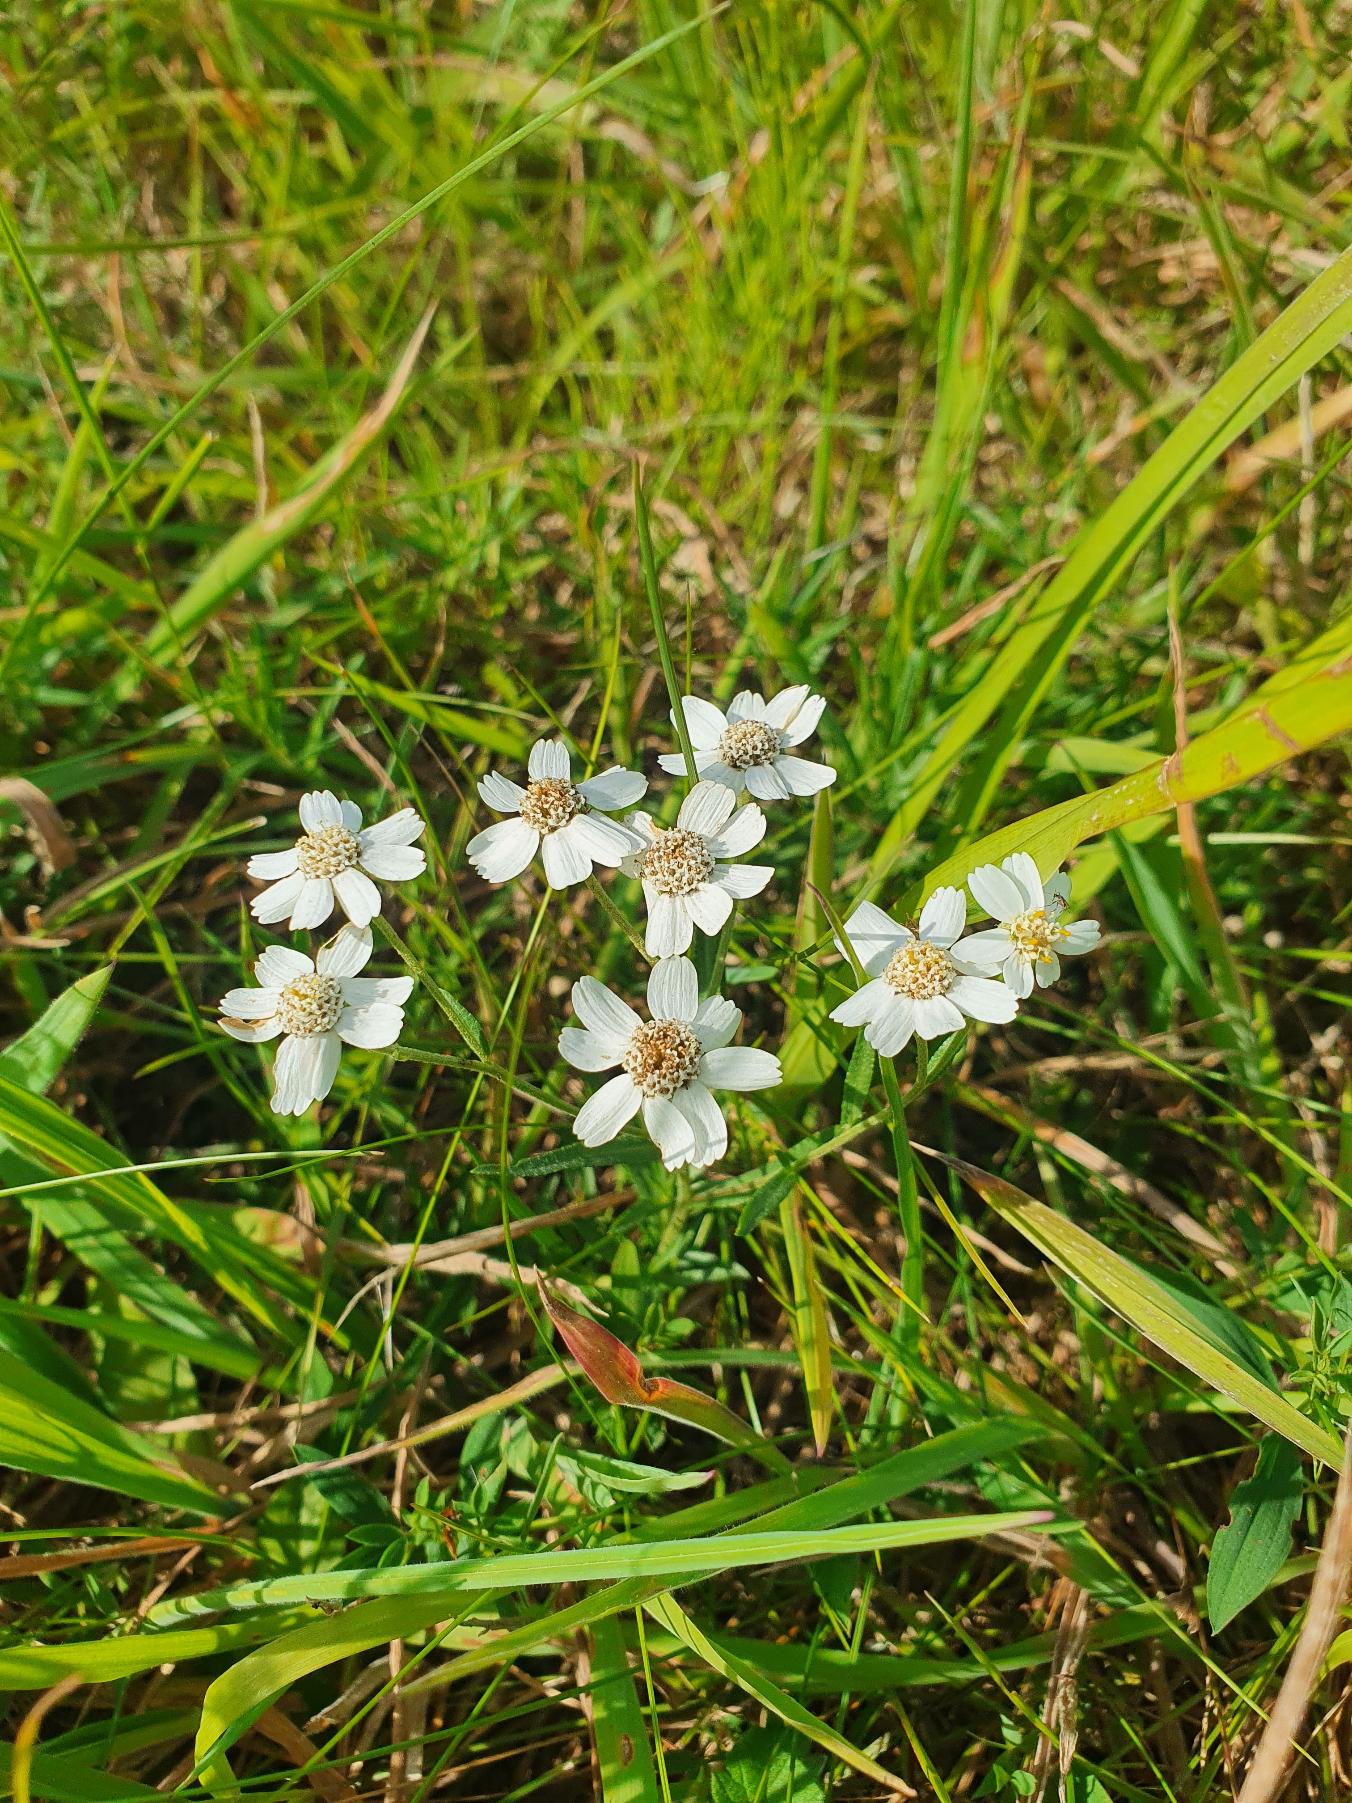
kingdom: Plantae
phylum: Tracheophyta
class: Magnoliopsida
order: Asterales
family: Asteraceae
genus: Achillea
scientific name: Achillea ptarmica
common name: Nyse-røllike
